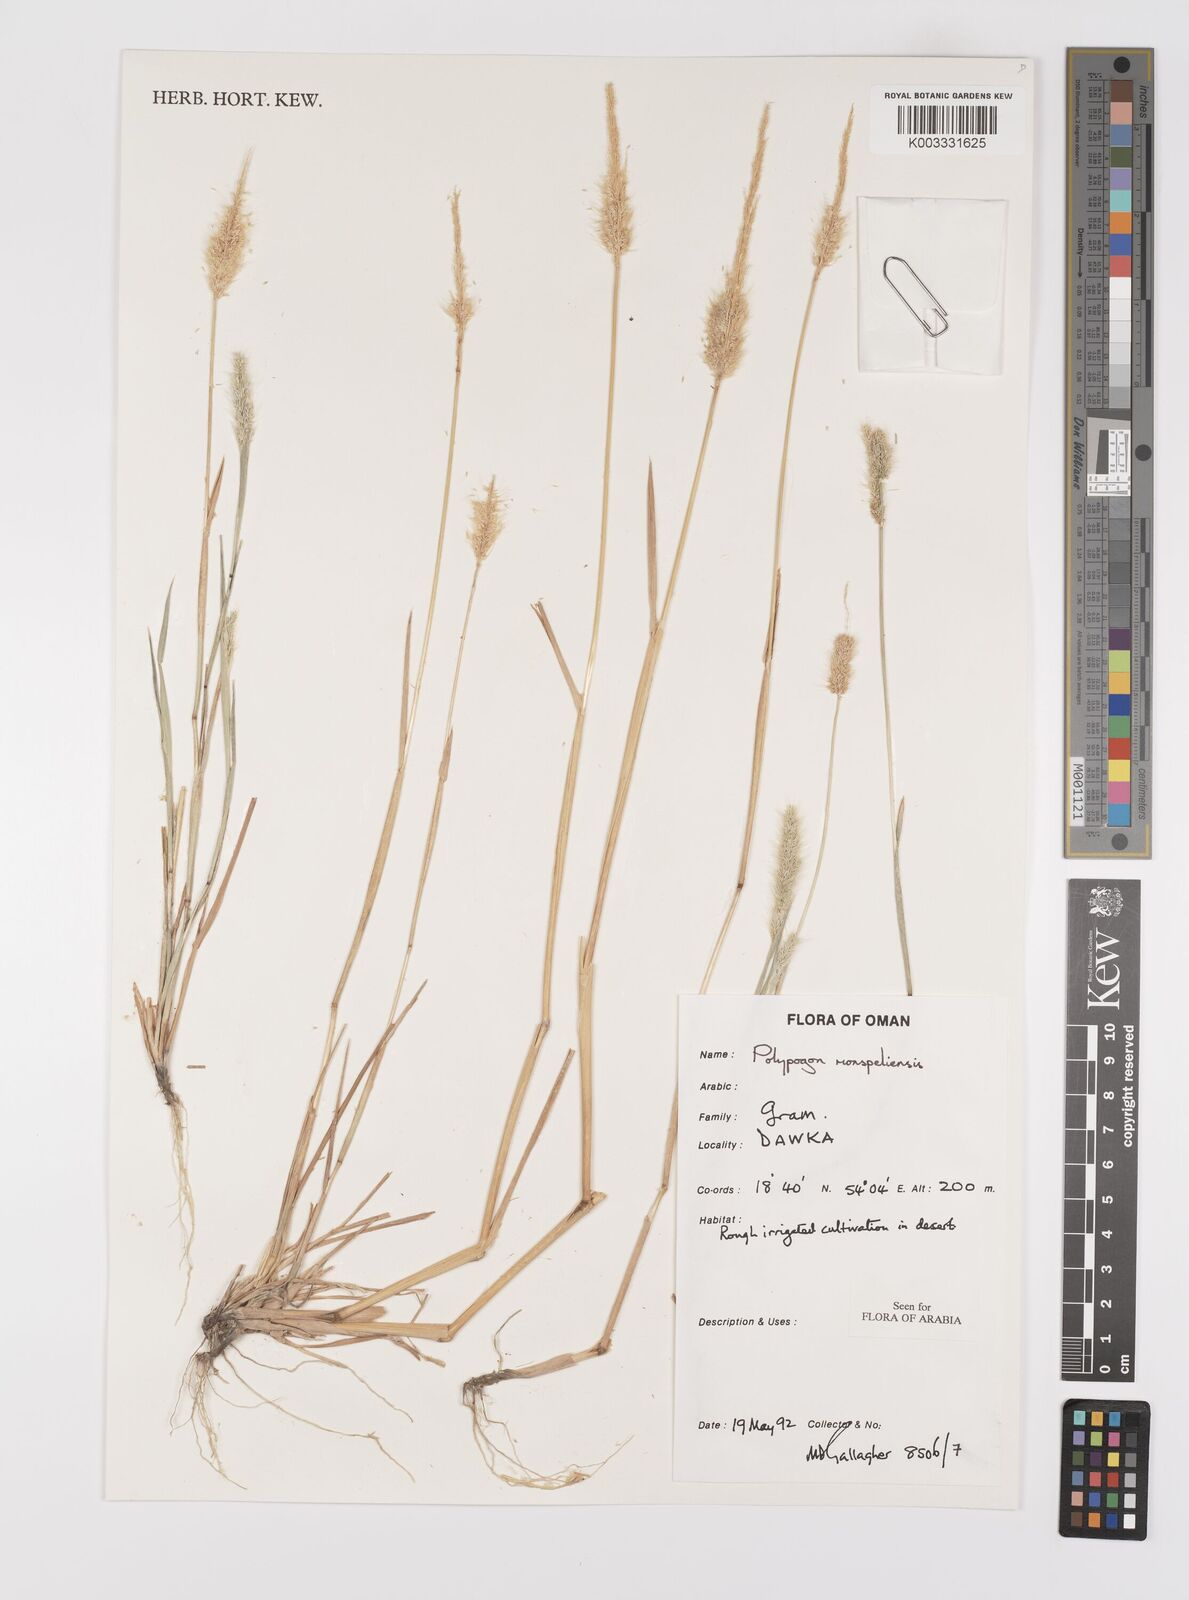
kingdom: Plantae
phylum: Tracheophyta
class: Liliopsida
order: Poales
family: Poaceae
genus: Polypogon
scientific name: Polypogon monspeliensis
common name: Annual rabbitsfoot grass
